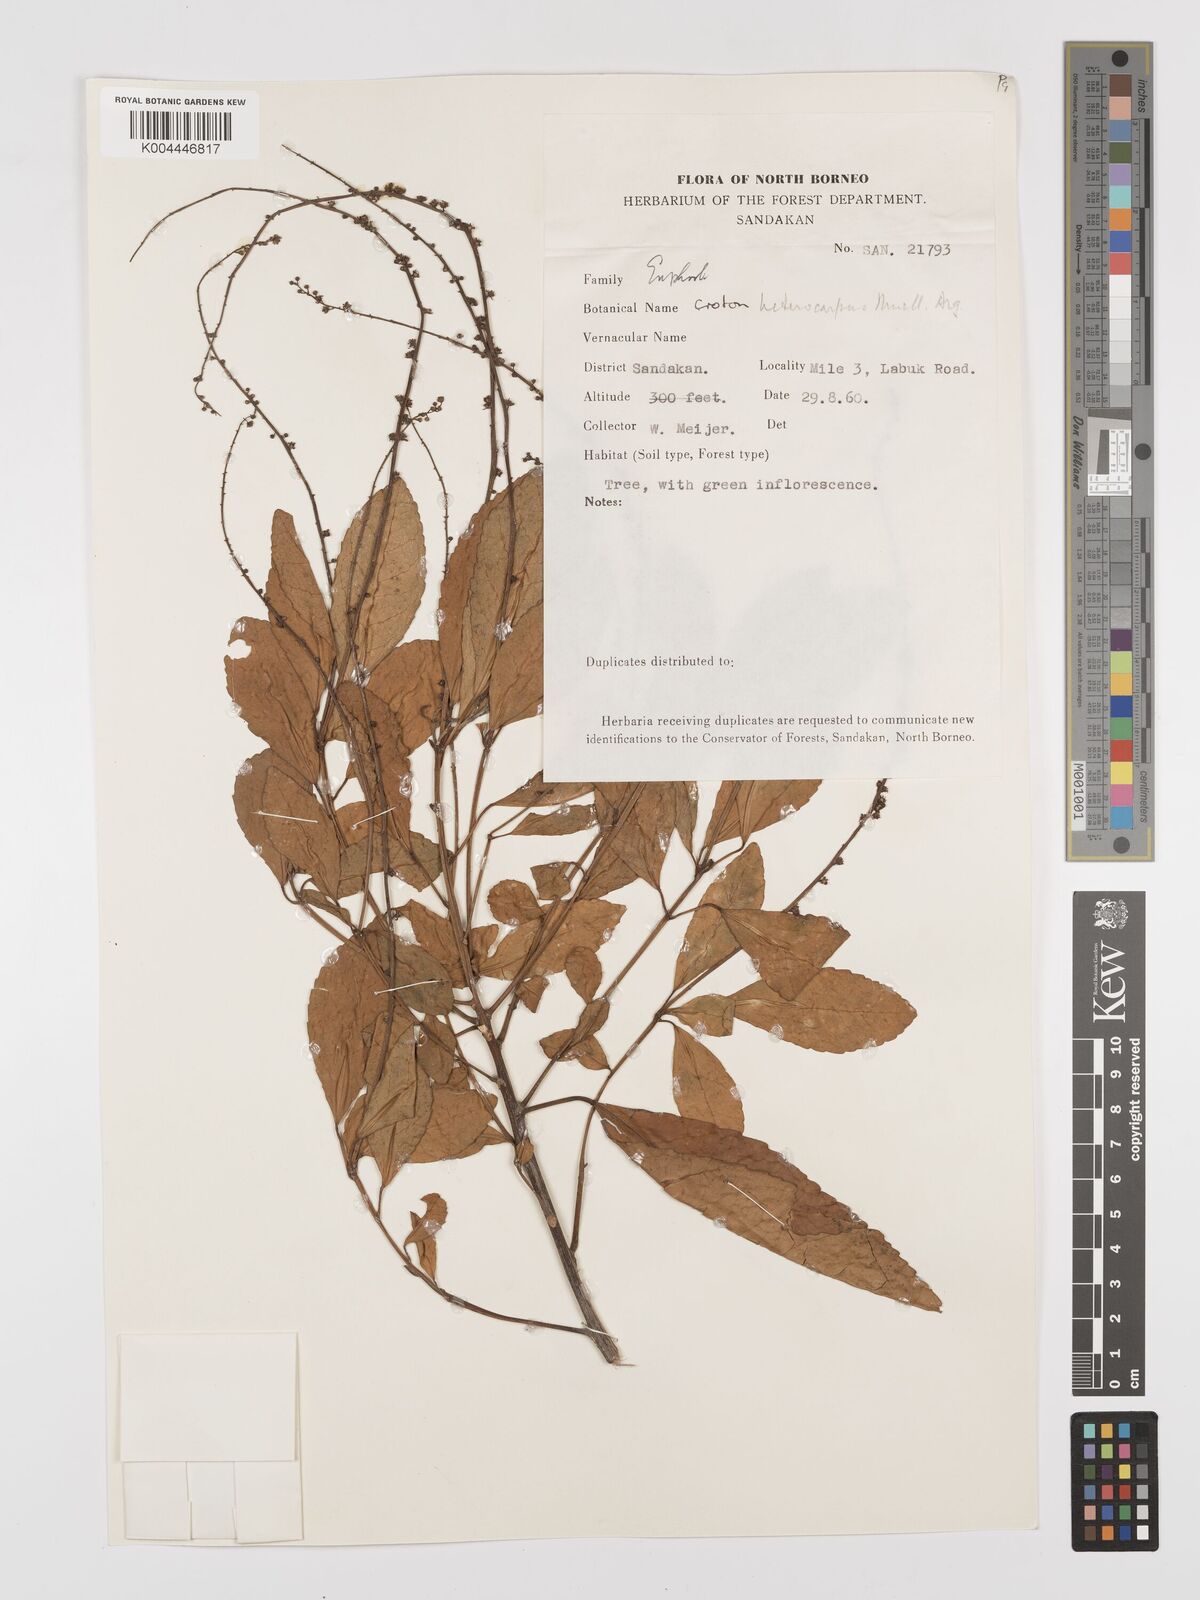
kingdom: Plantae
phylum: Tracheophyta
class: Magnoliopsida
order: Malpighiales
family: Euphorbiaceae
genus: Croton
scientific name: Croton heterocarpus
